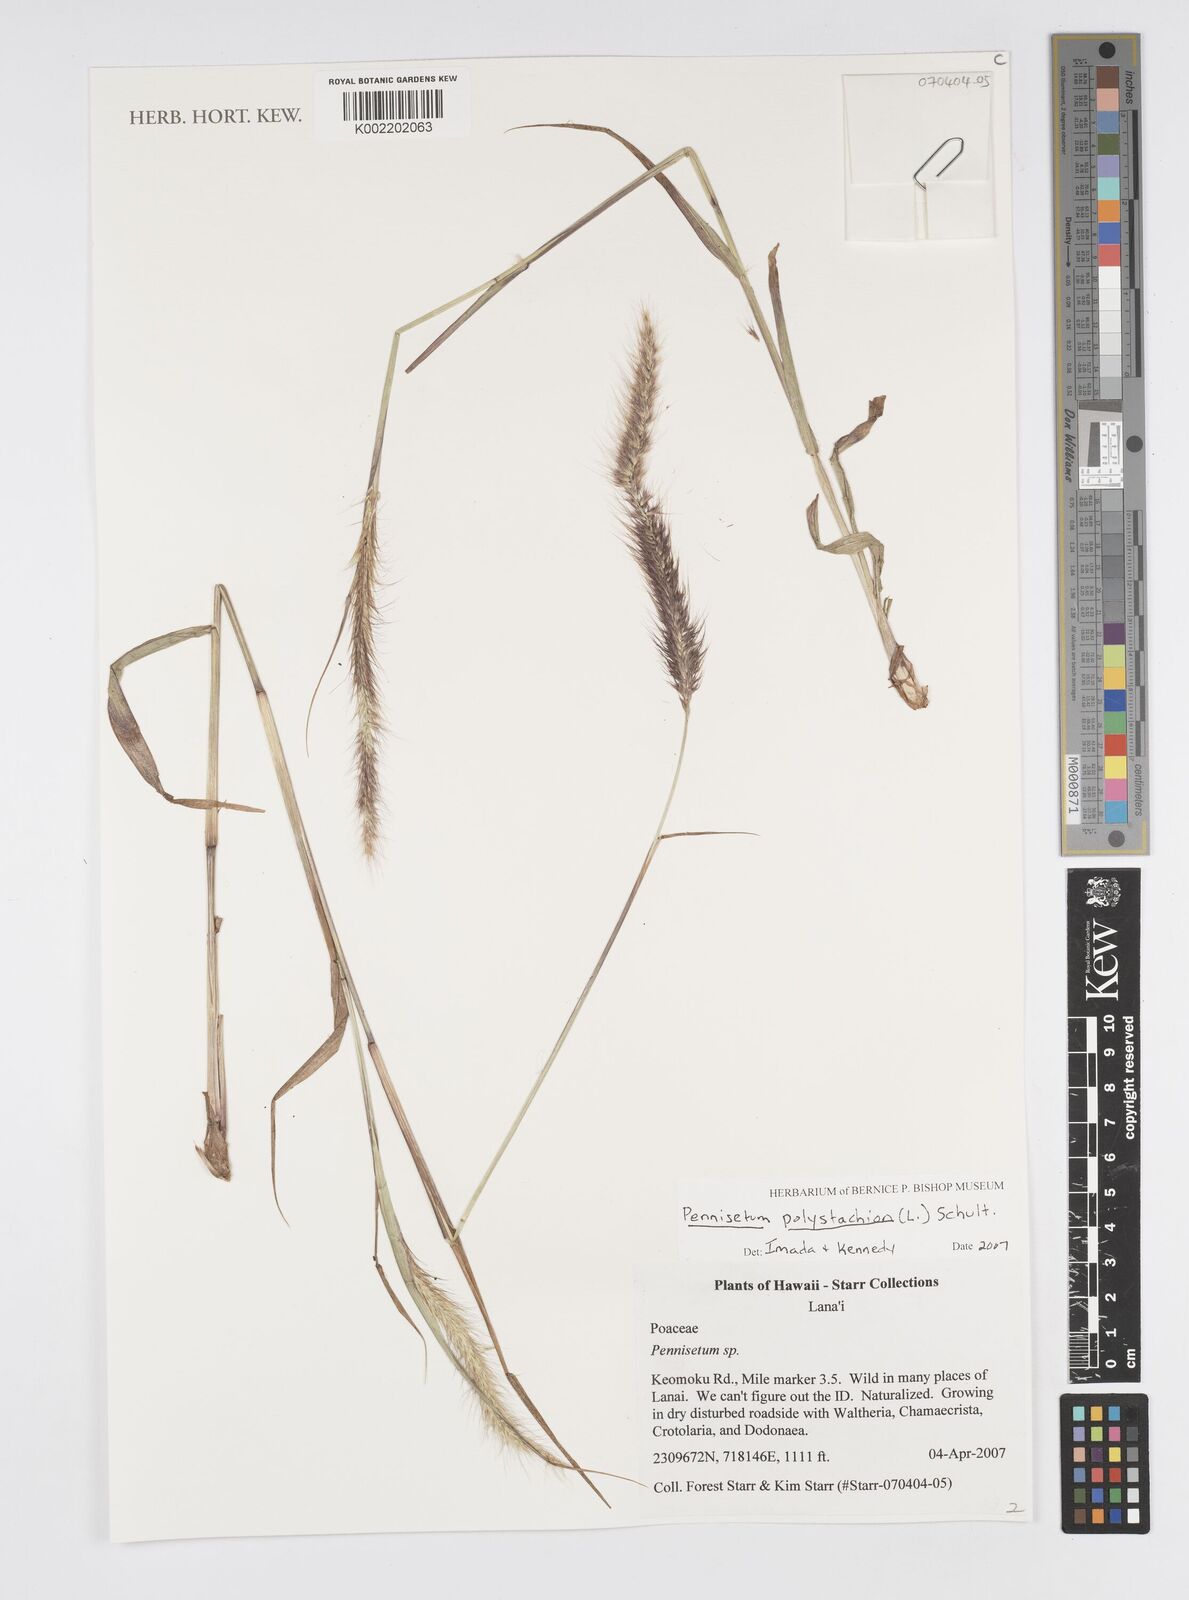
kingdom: Plantae
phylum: Tracheophyta
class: Liliopsida
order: Poales
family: Poaceae
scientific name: Poaceae
